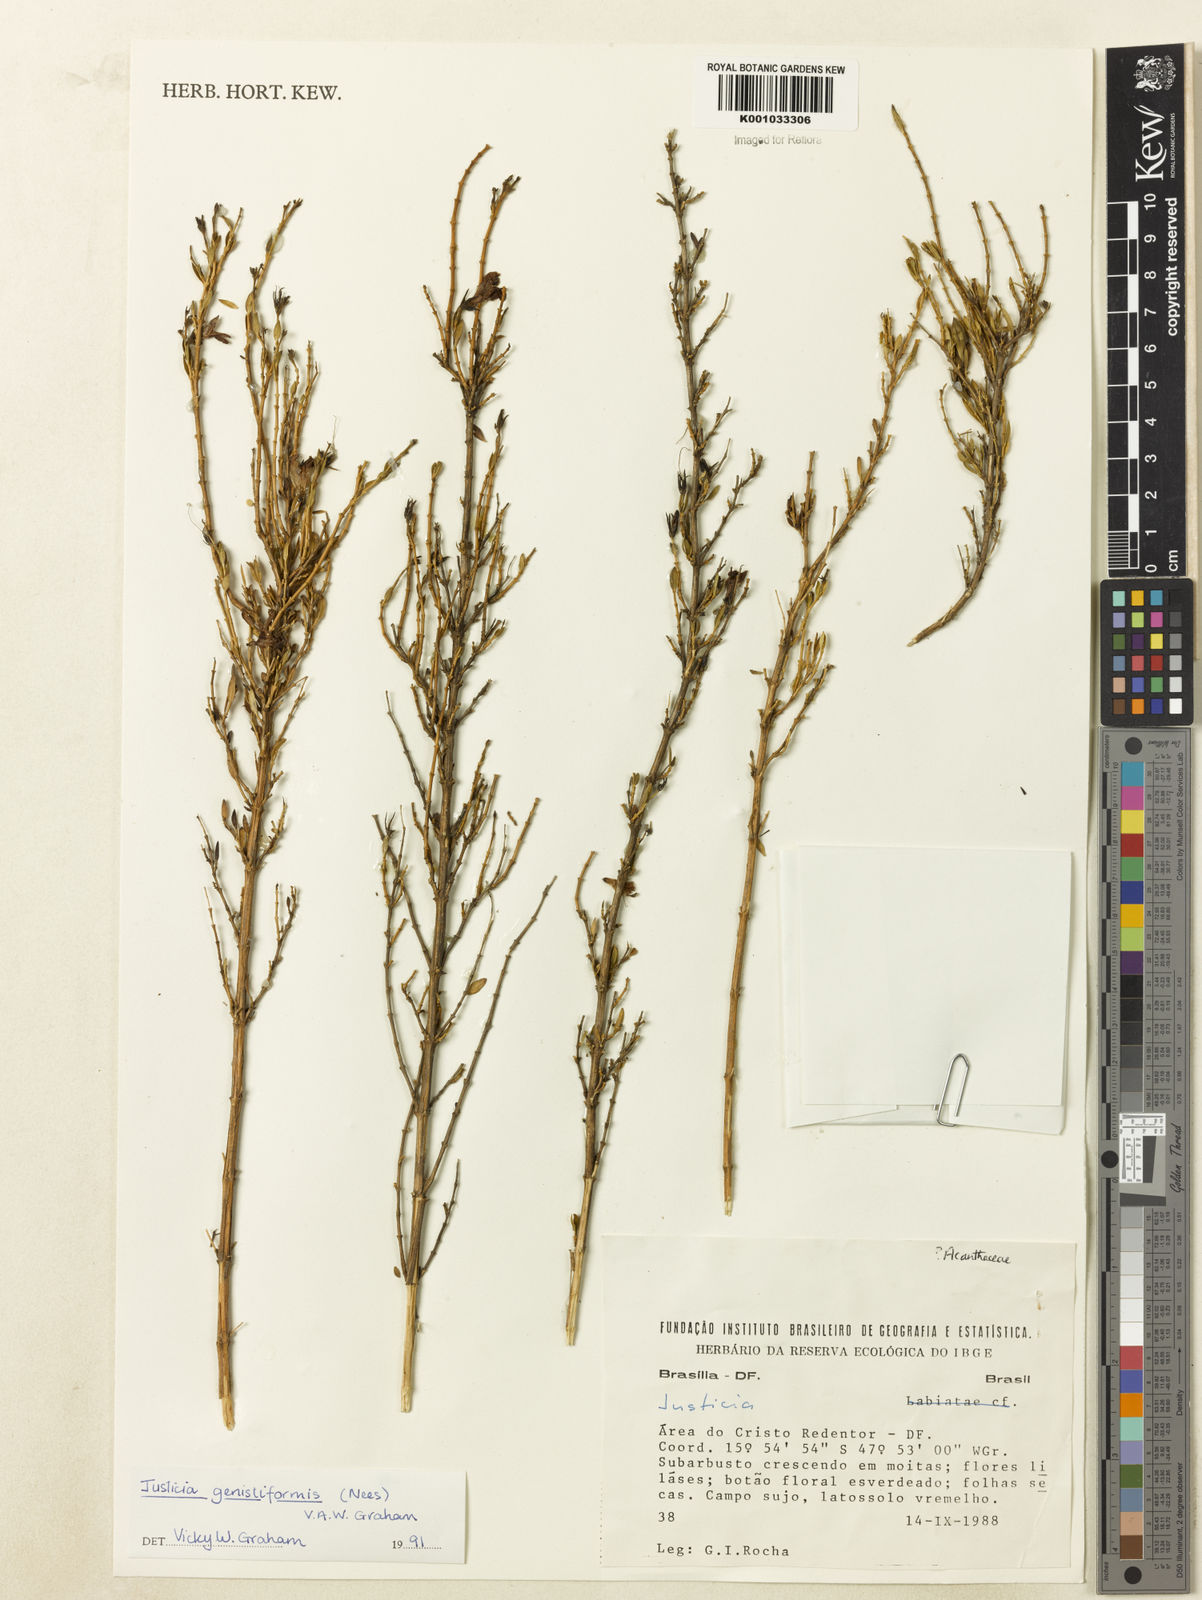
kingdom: Plantae
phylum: Tracheophyta
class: Magnoliopsida
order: Lamiales
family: Acanthaceae
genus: Justicia
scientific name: Justicia
